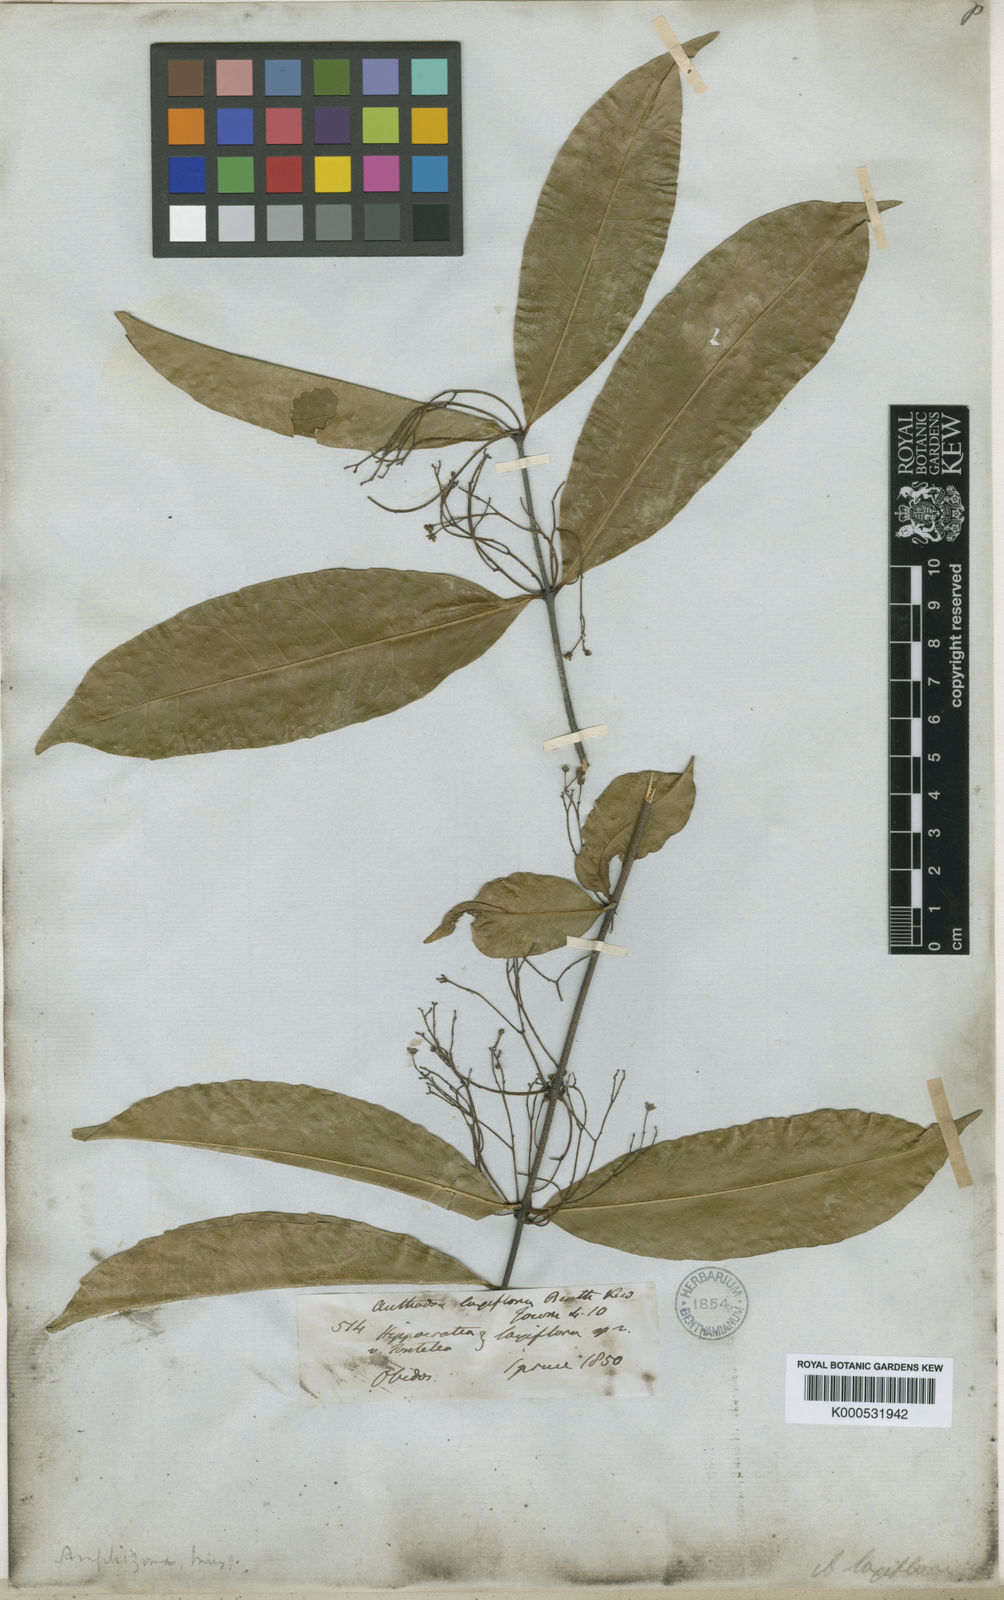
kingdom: Plantae
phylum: Tracheophyta
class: Magnoliopsida
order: Celastrales
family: Celastraceae
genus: Tontelea
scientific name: Tontelea laxiflora
